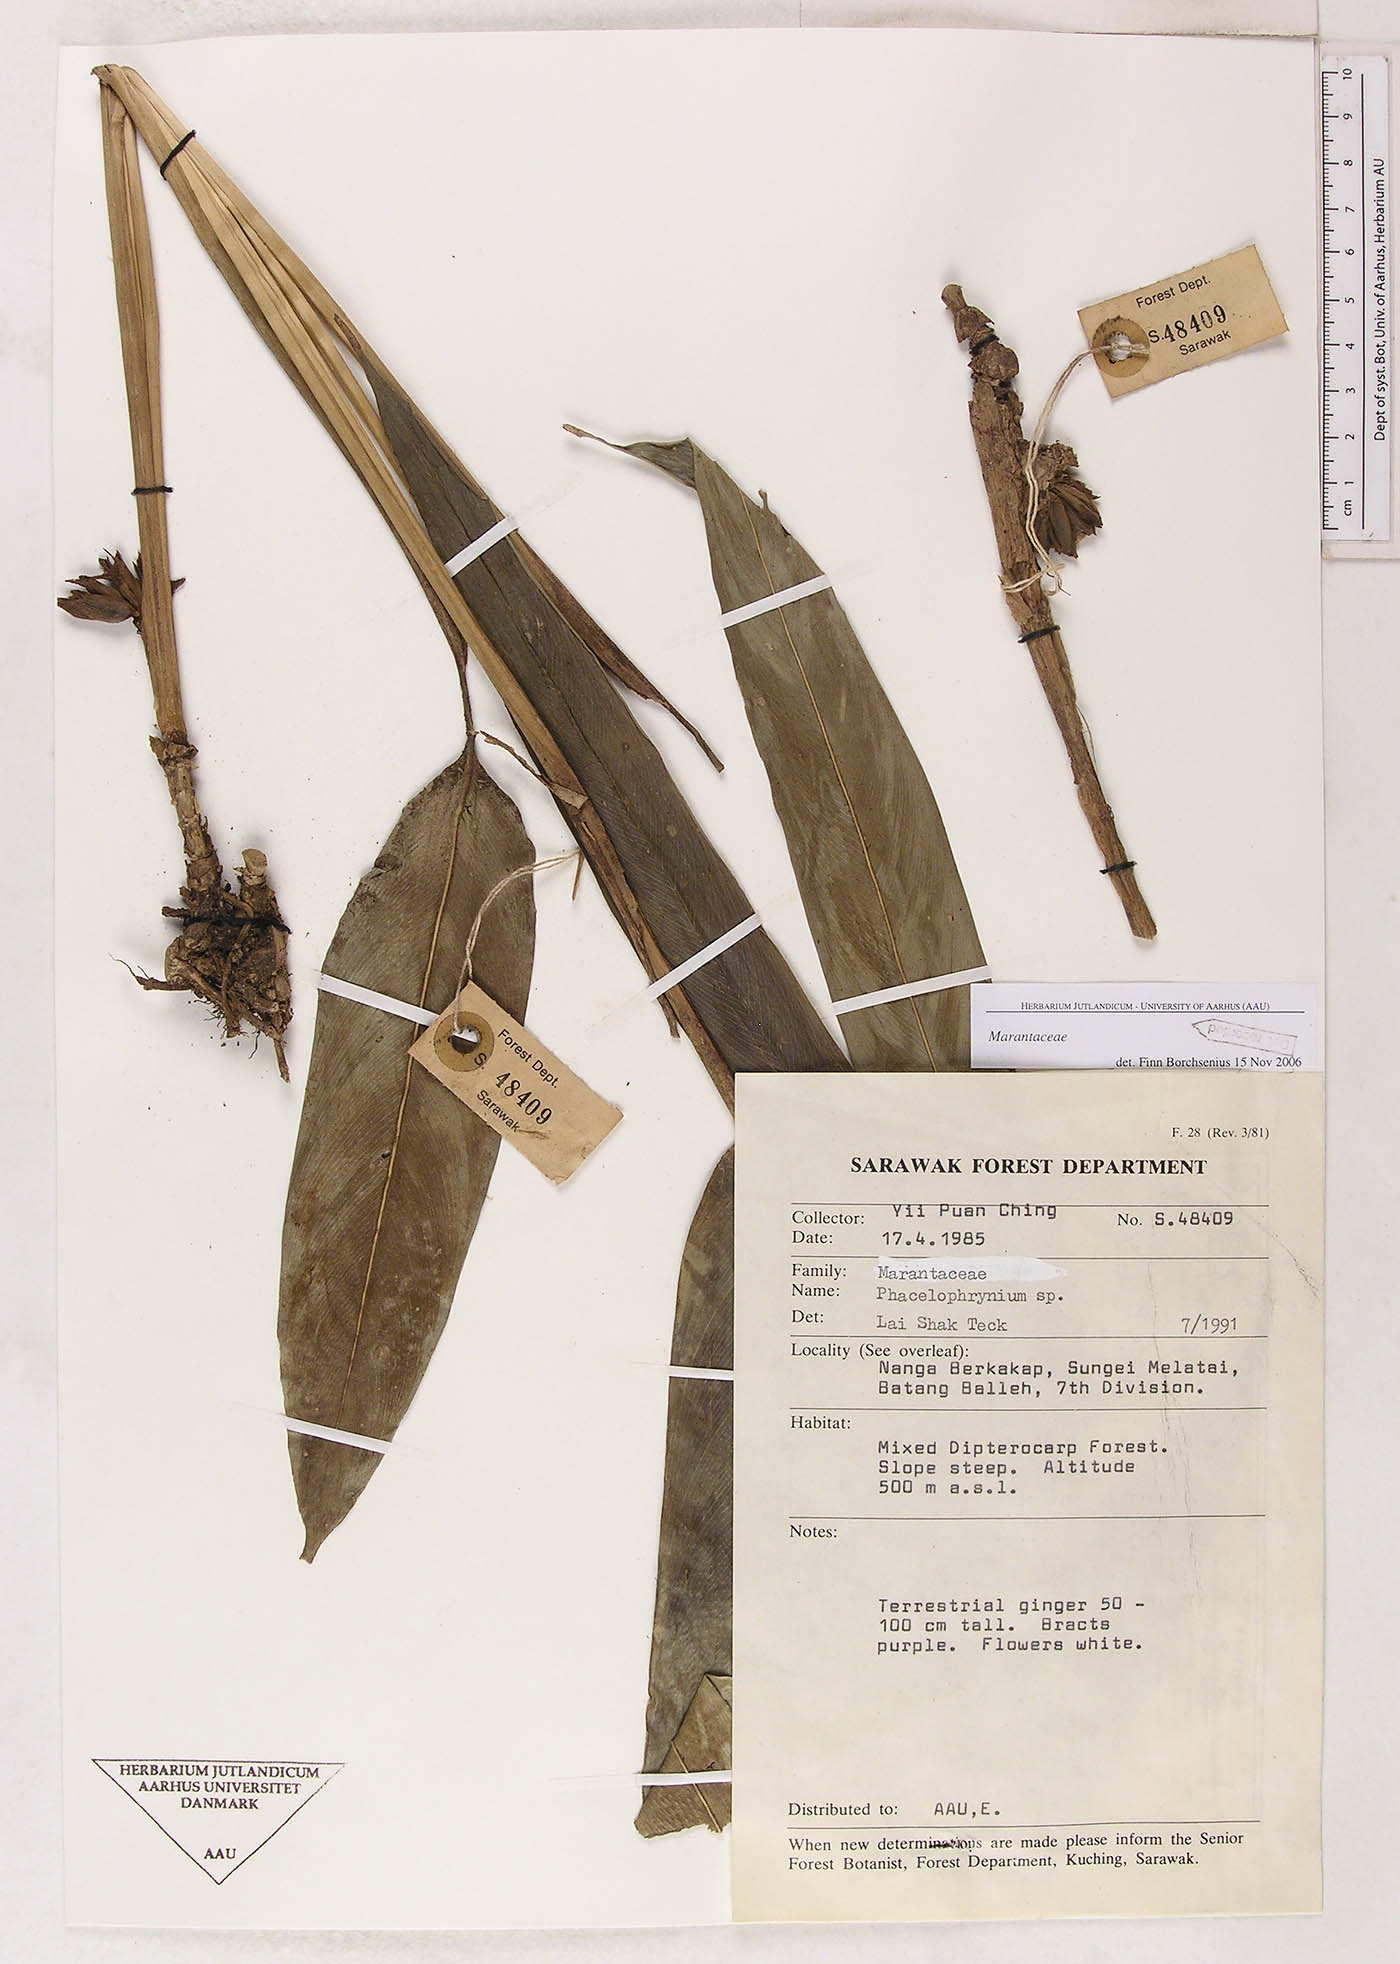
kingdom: Plantae
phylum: Tracheophyta
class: Liliopsida
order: Zingiberales
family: Marantaceae
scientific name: Marantaceae
